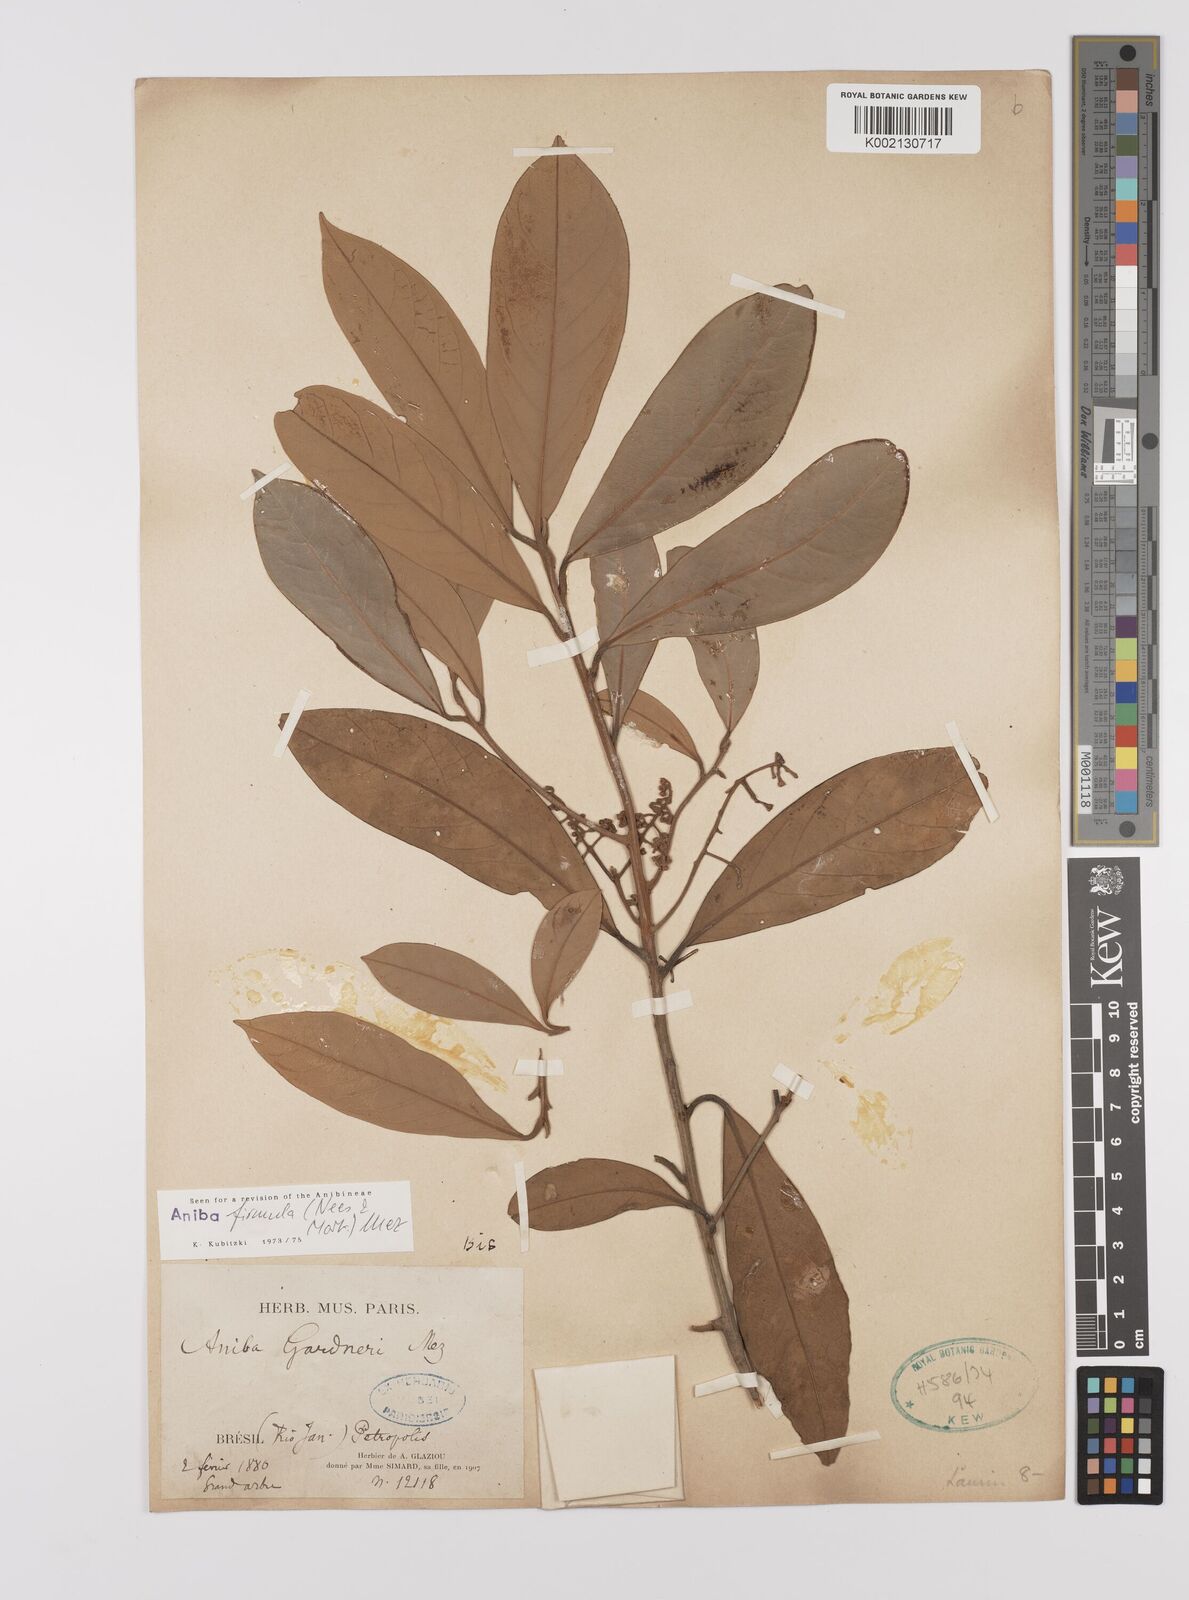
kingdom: Plantae
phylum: Tracheophyta
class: Magnoliopsida
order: Laurales
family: Lauraceae
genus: Aniba
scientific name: Aniba firmula
